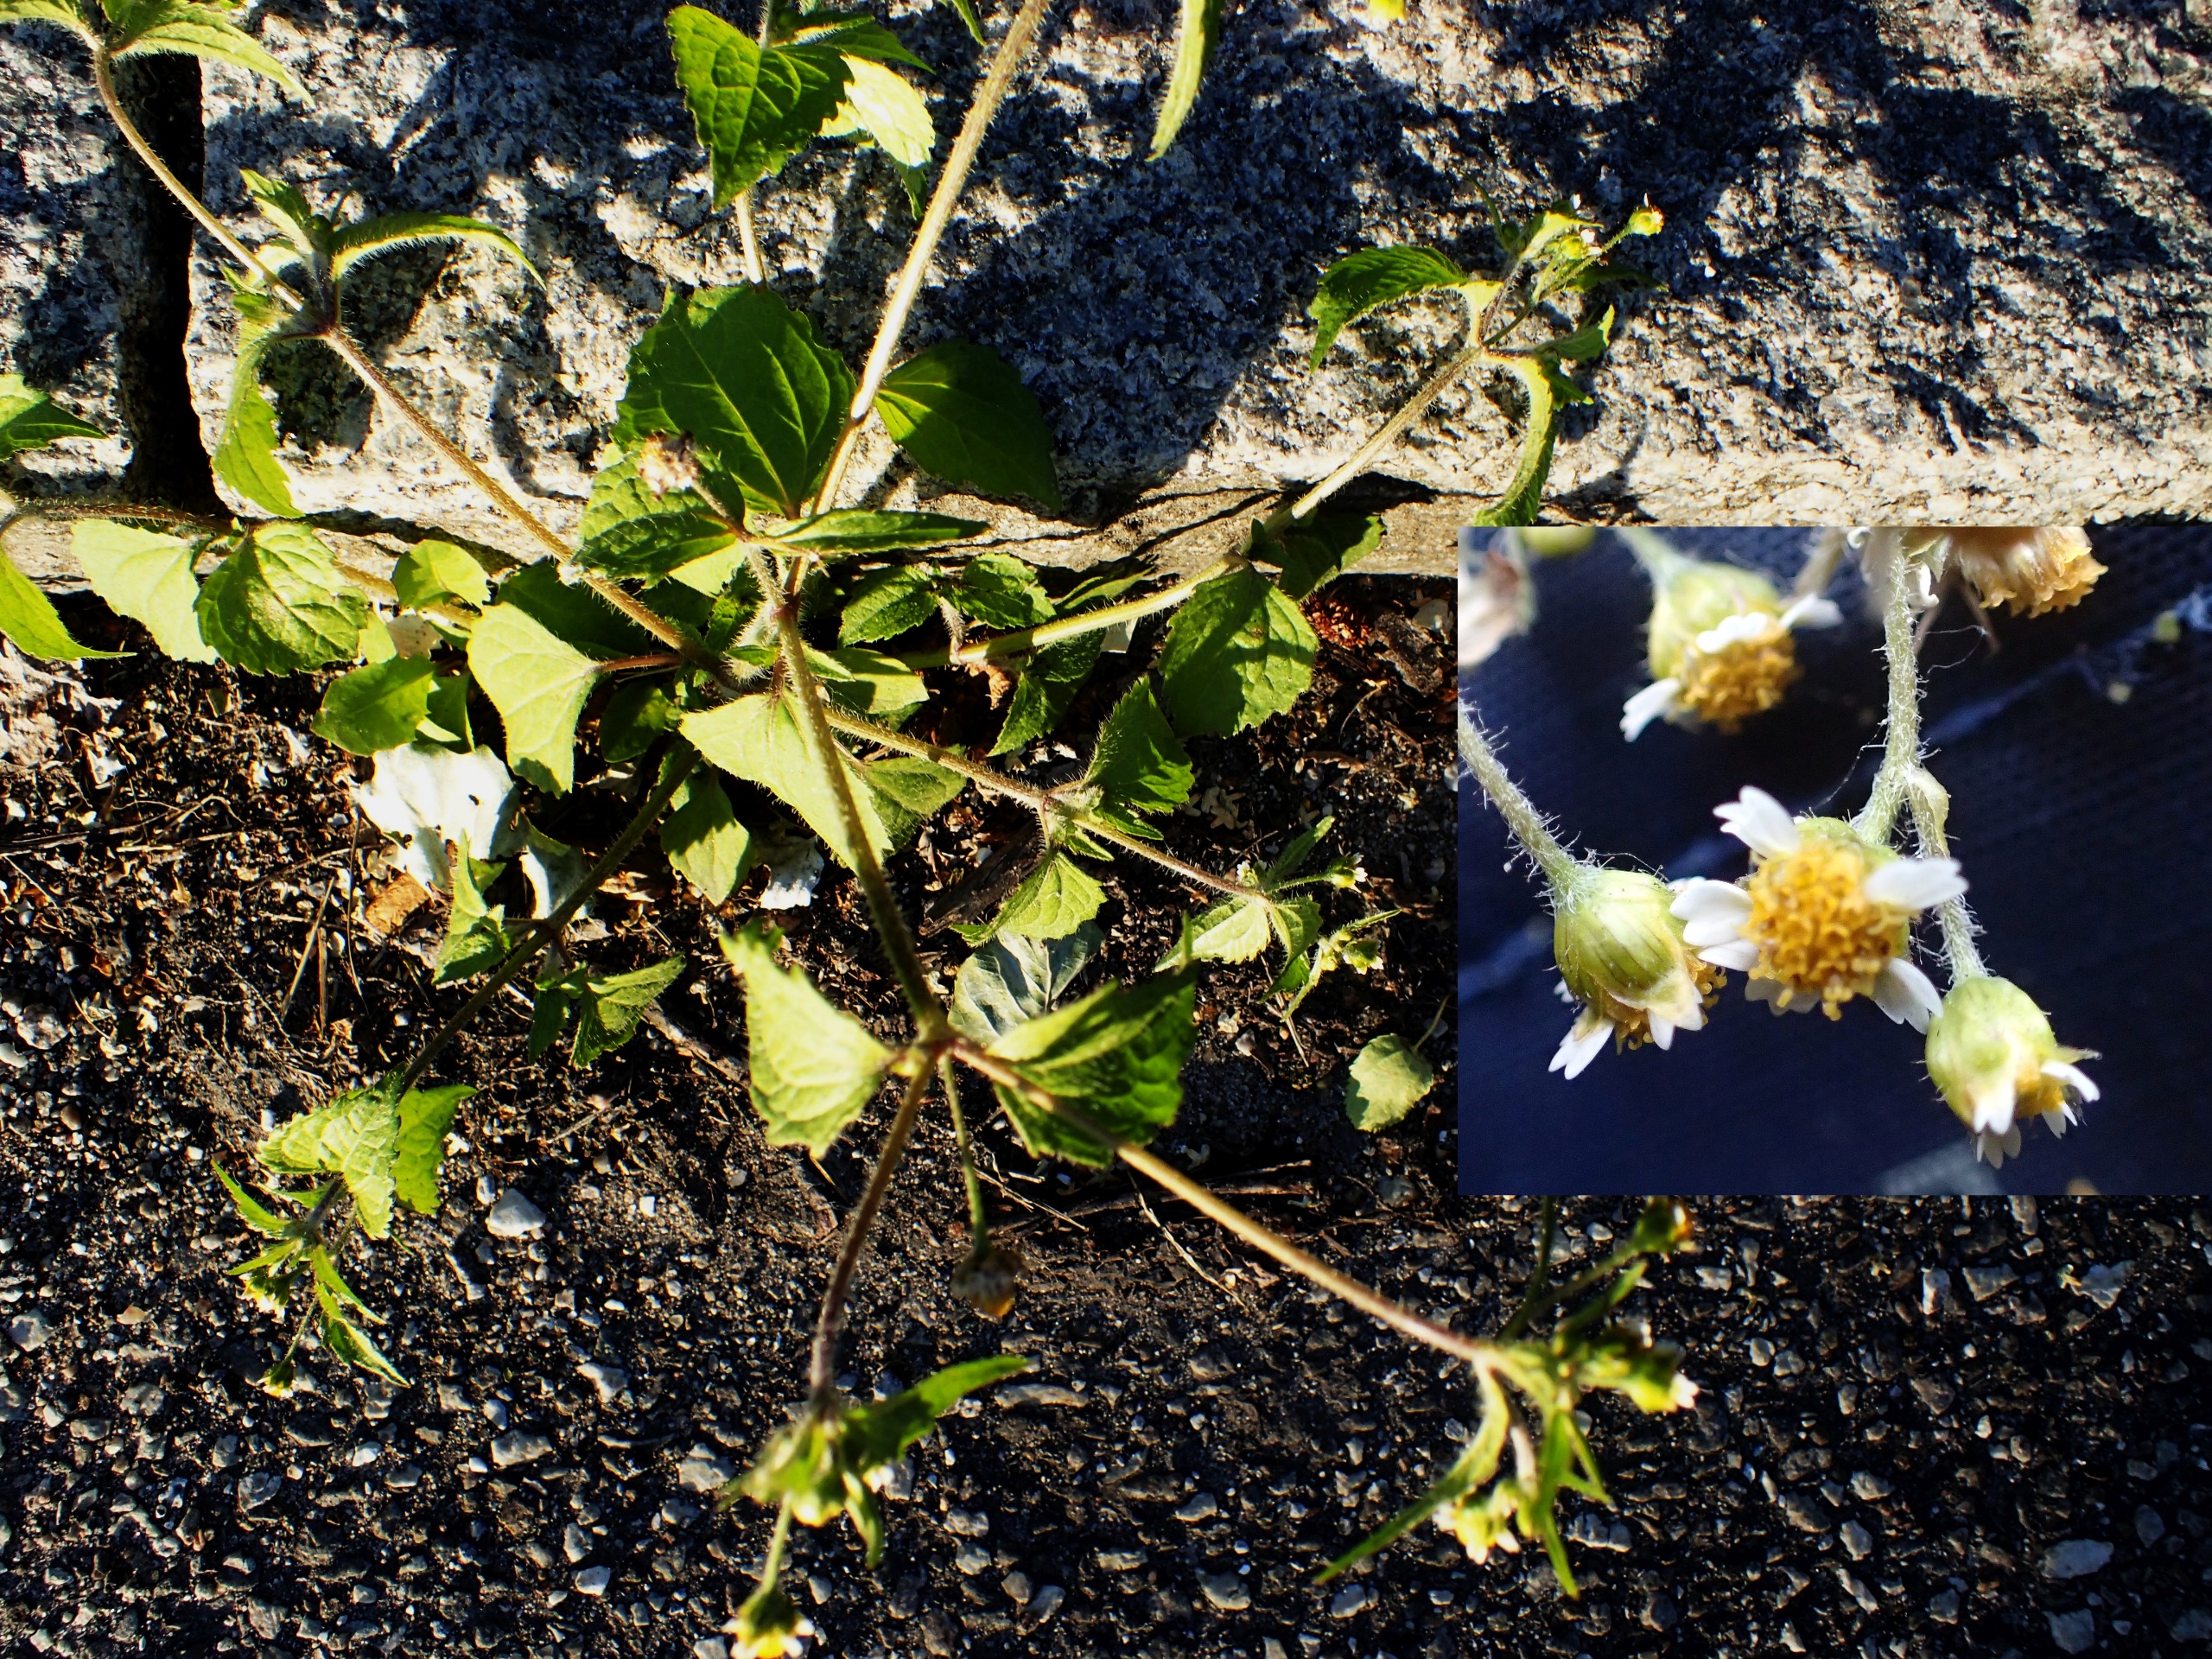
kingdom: Plantae
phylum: Tracheophyta
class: Magnoliopsida
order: Asterales
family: Asteraceae
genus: Galinsoga
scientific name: Galinsoga quadriradiata
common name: Kirtel-kortstråle
